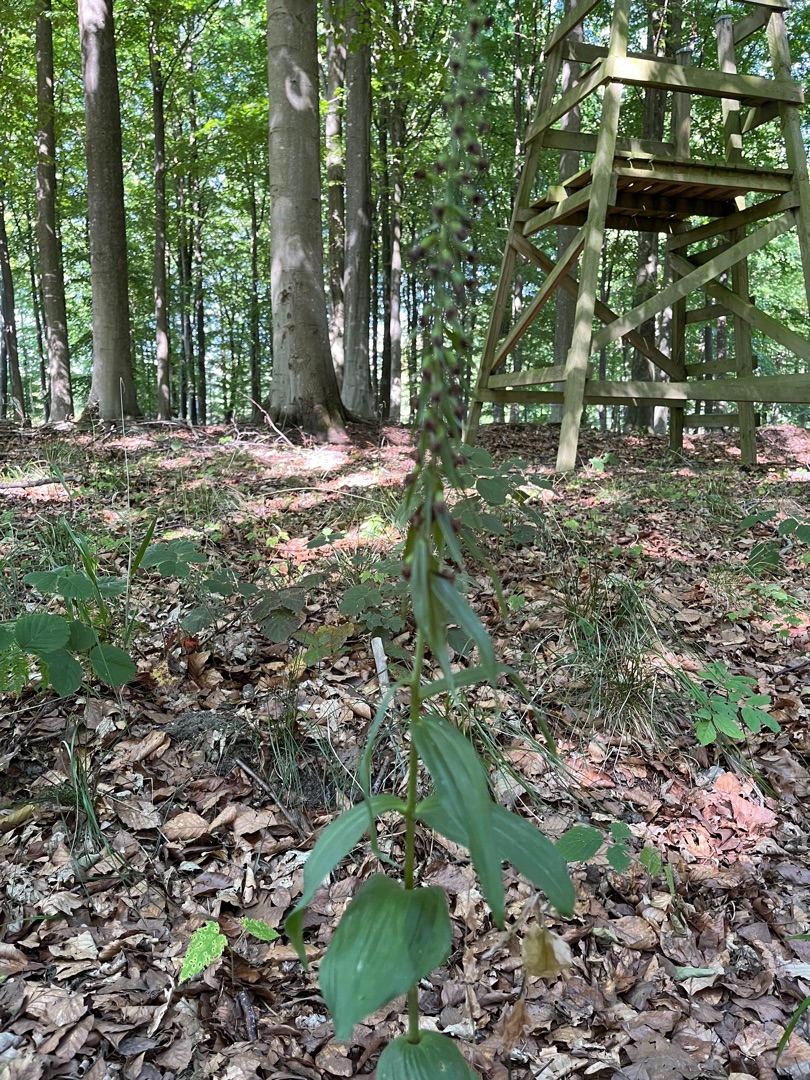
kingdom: Plantae
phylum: Tracheophyta
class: Liliopsida
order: Asparagales
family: Orchidaceae
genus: Epipactis
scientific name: Epipactis helleborine
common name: Skov-hullæbe
